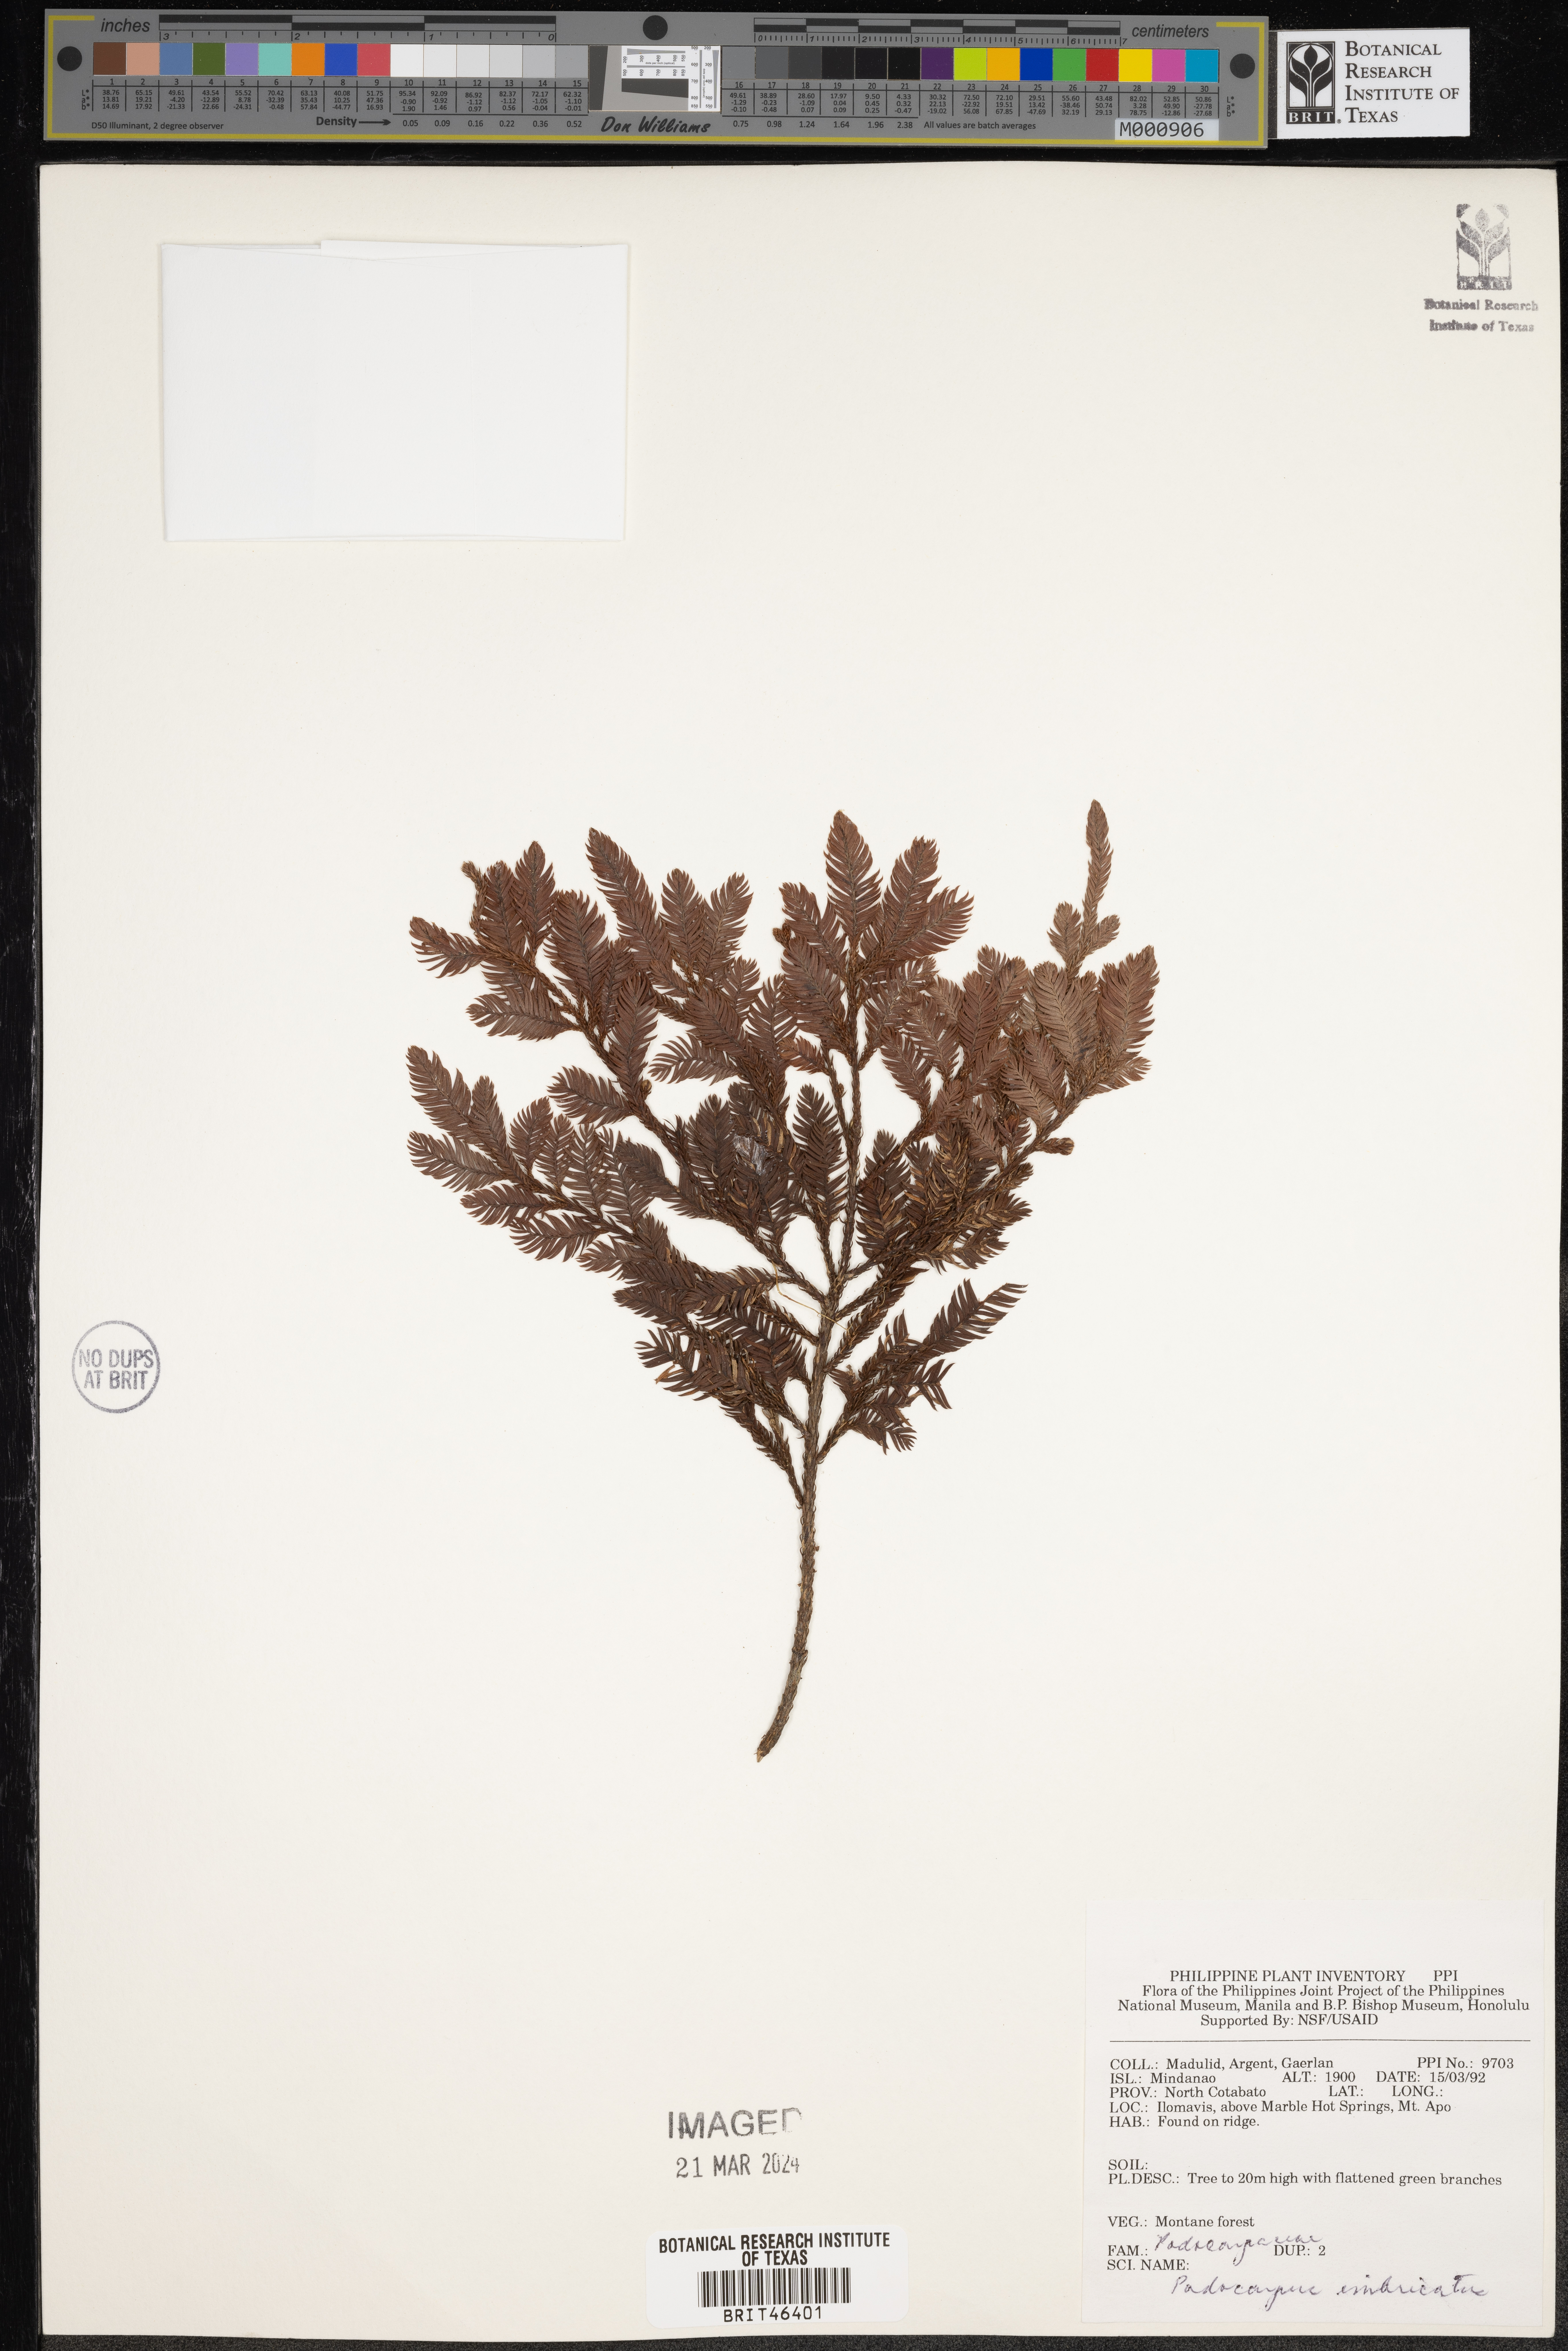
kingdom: Plantae
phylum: Tracheophyta
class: Pinopsida
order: Pinales
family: Podocarpaceae
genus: Dacrycarpus
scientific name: Dacrycarpus imbricatus
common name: Pine
